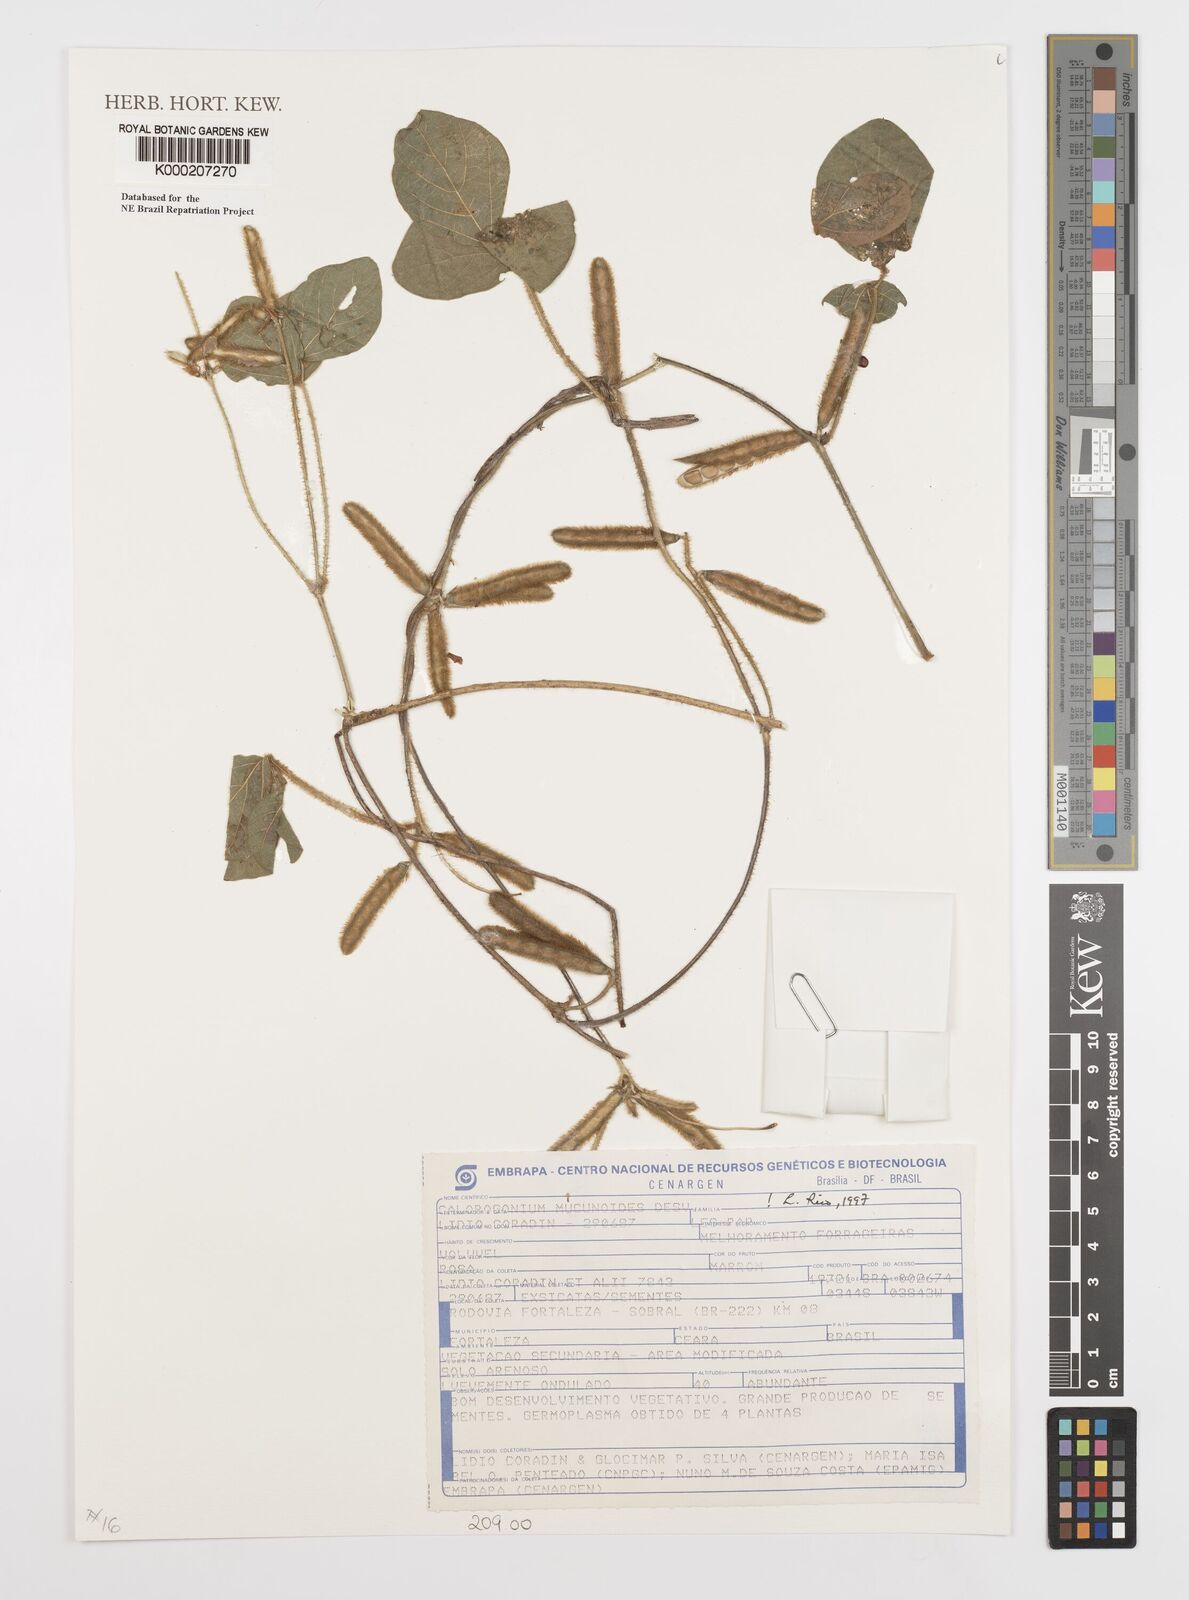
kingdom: Plantae
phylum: Tracheophyta
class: Magnoliopsida
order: Fabales
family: Fabaceae
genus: Calopogonium
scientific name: Calopogonium mucunoides
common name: Calopo
